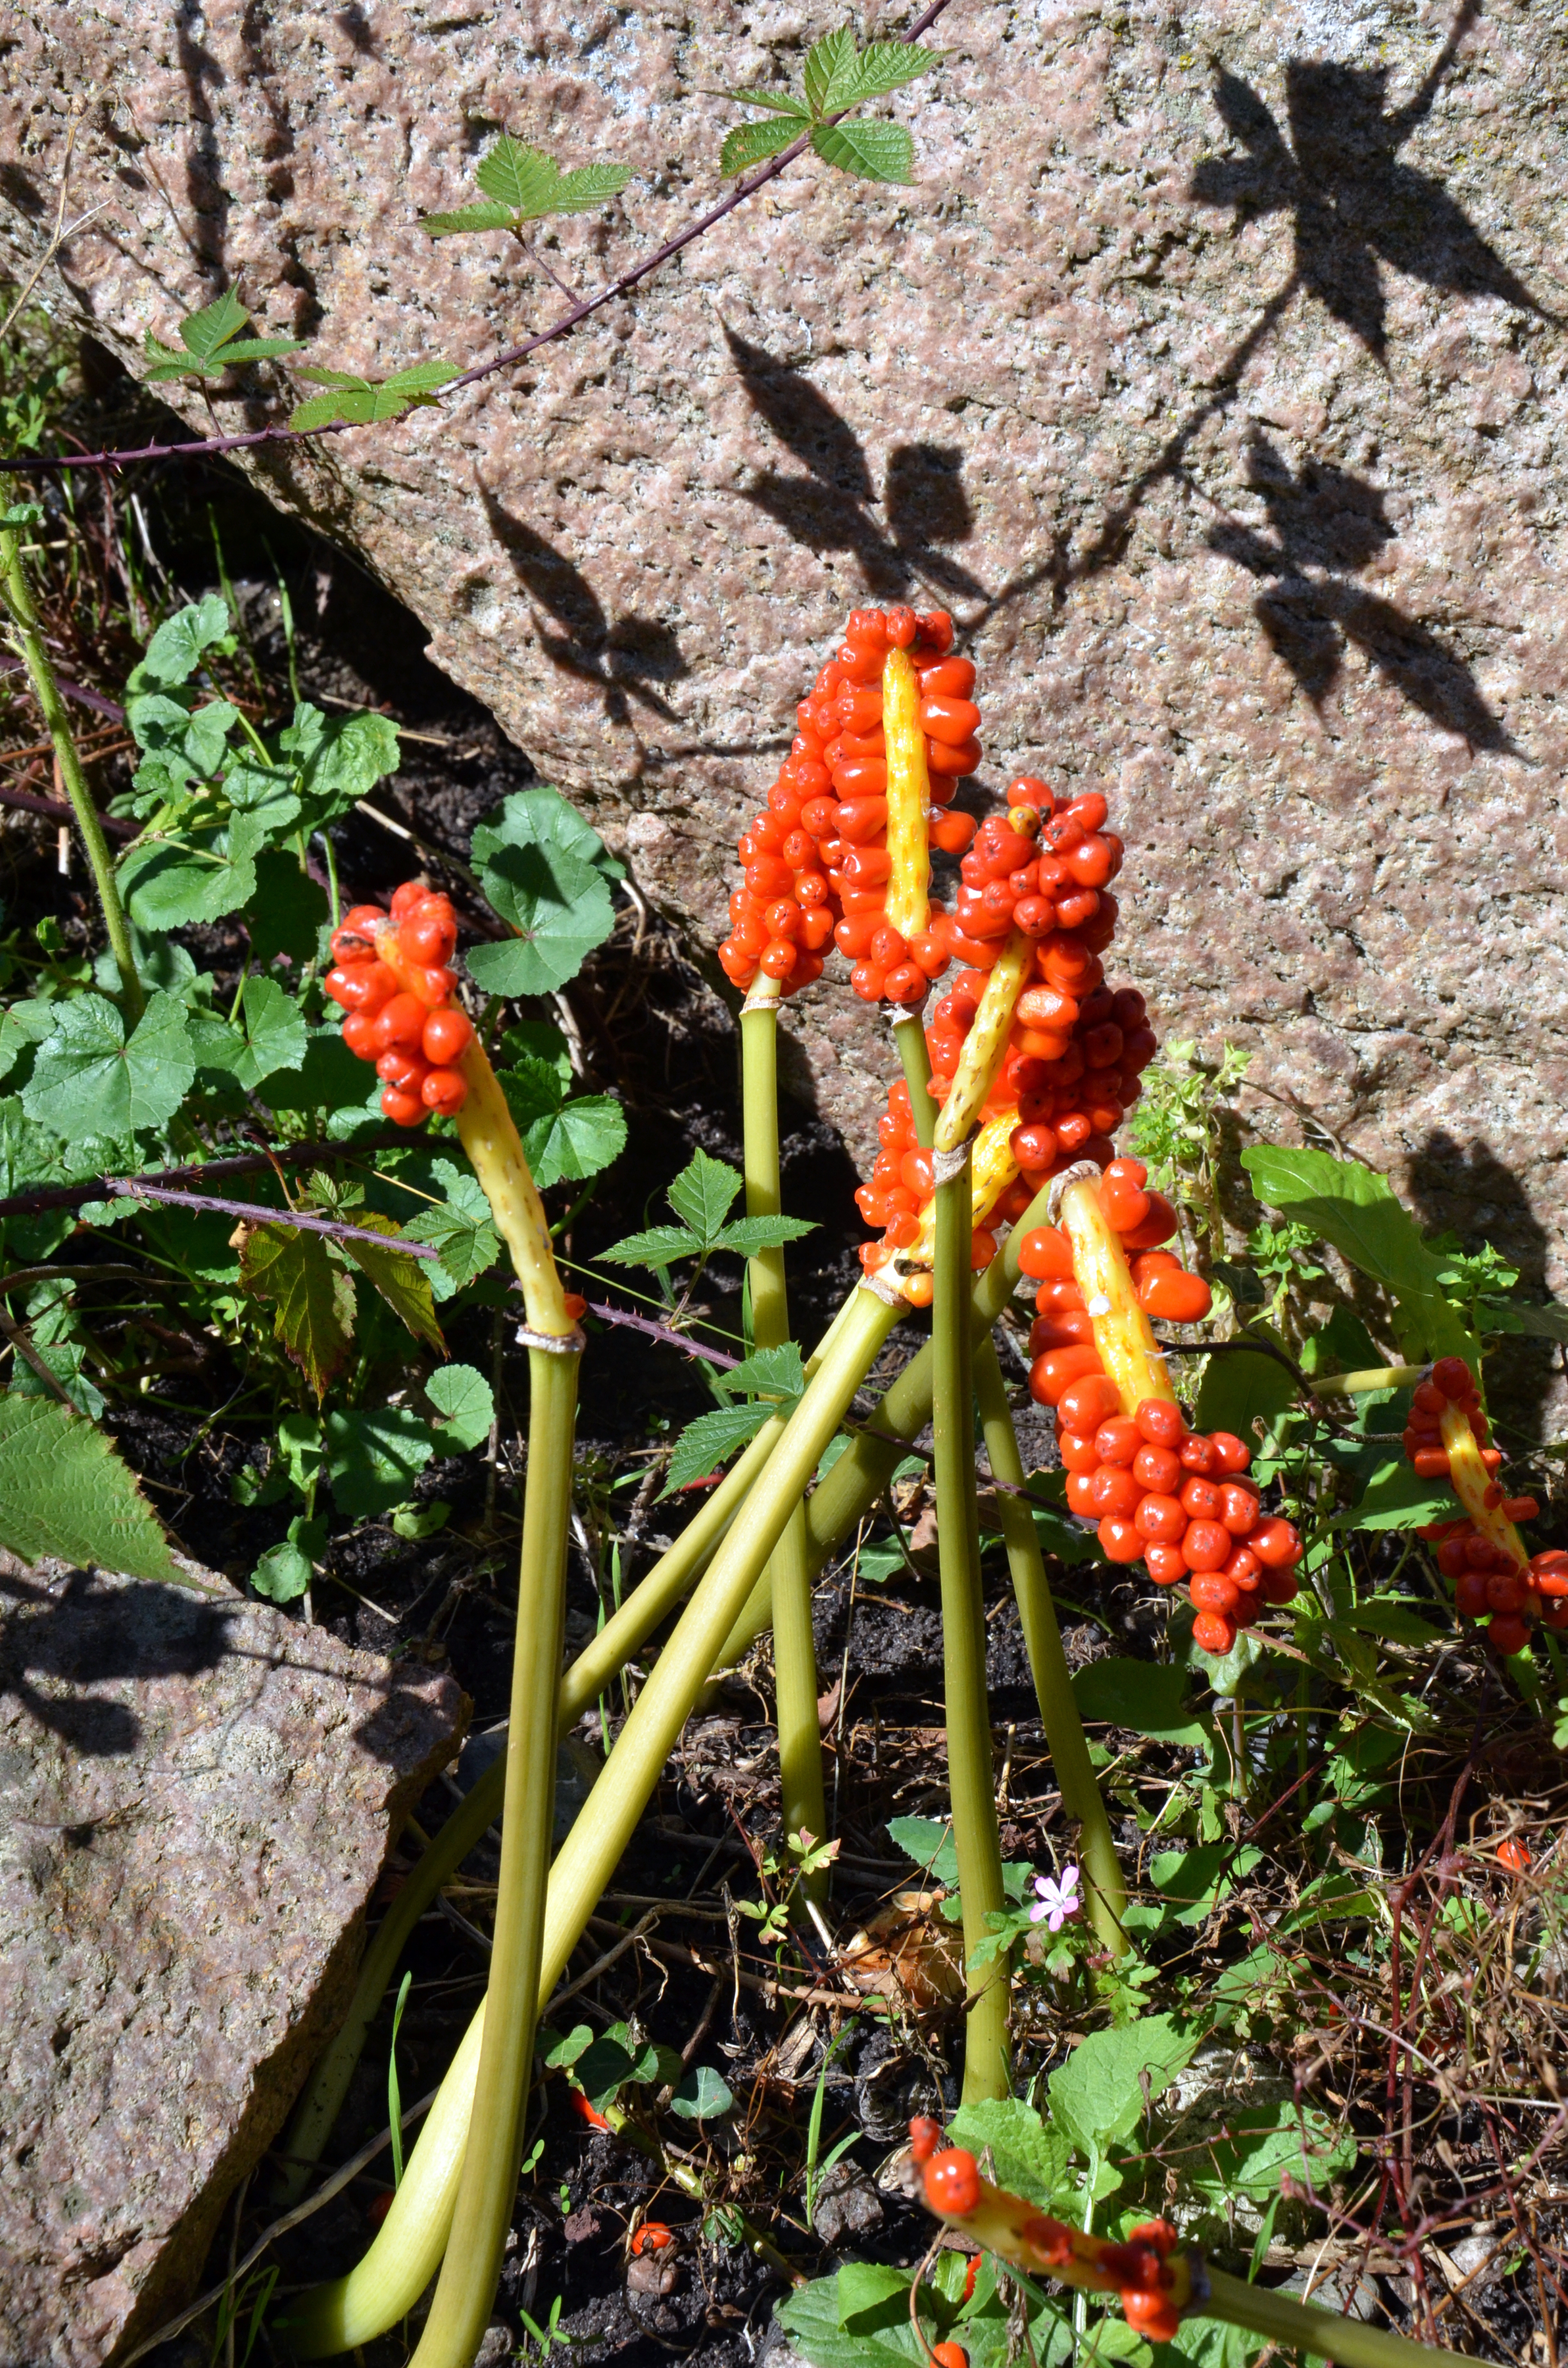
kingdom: Plantae
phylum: Tracheophyta
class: Liliopsida
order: Alismatales
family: Araceae
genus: Arum
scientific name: Arum cylindraceum
